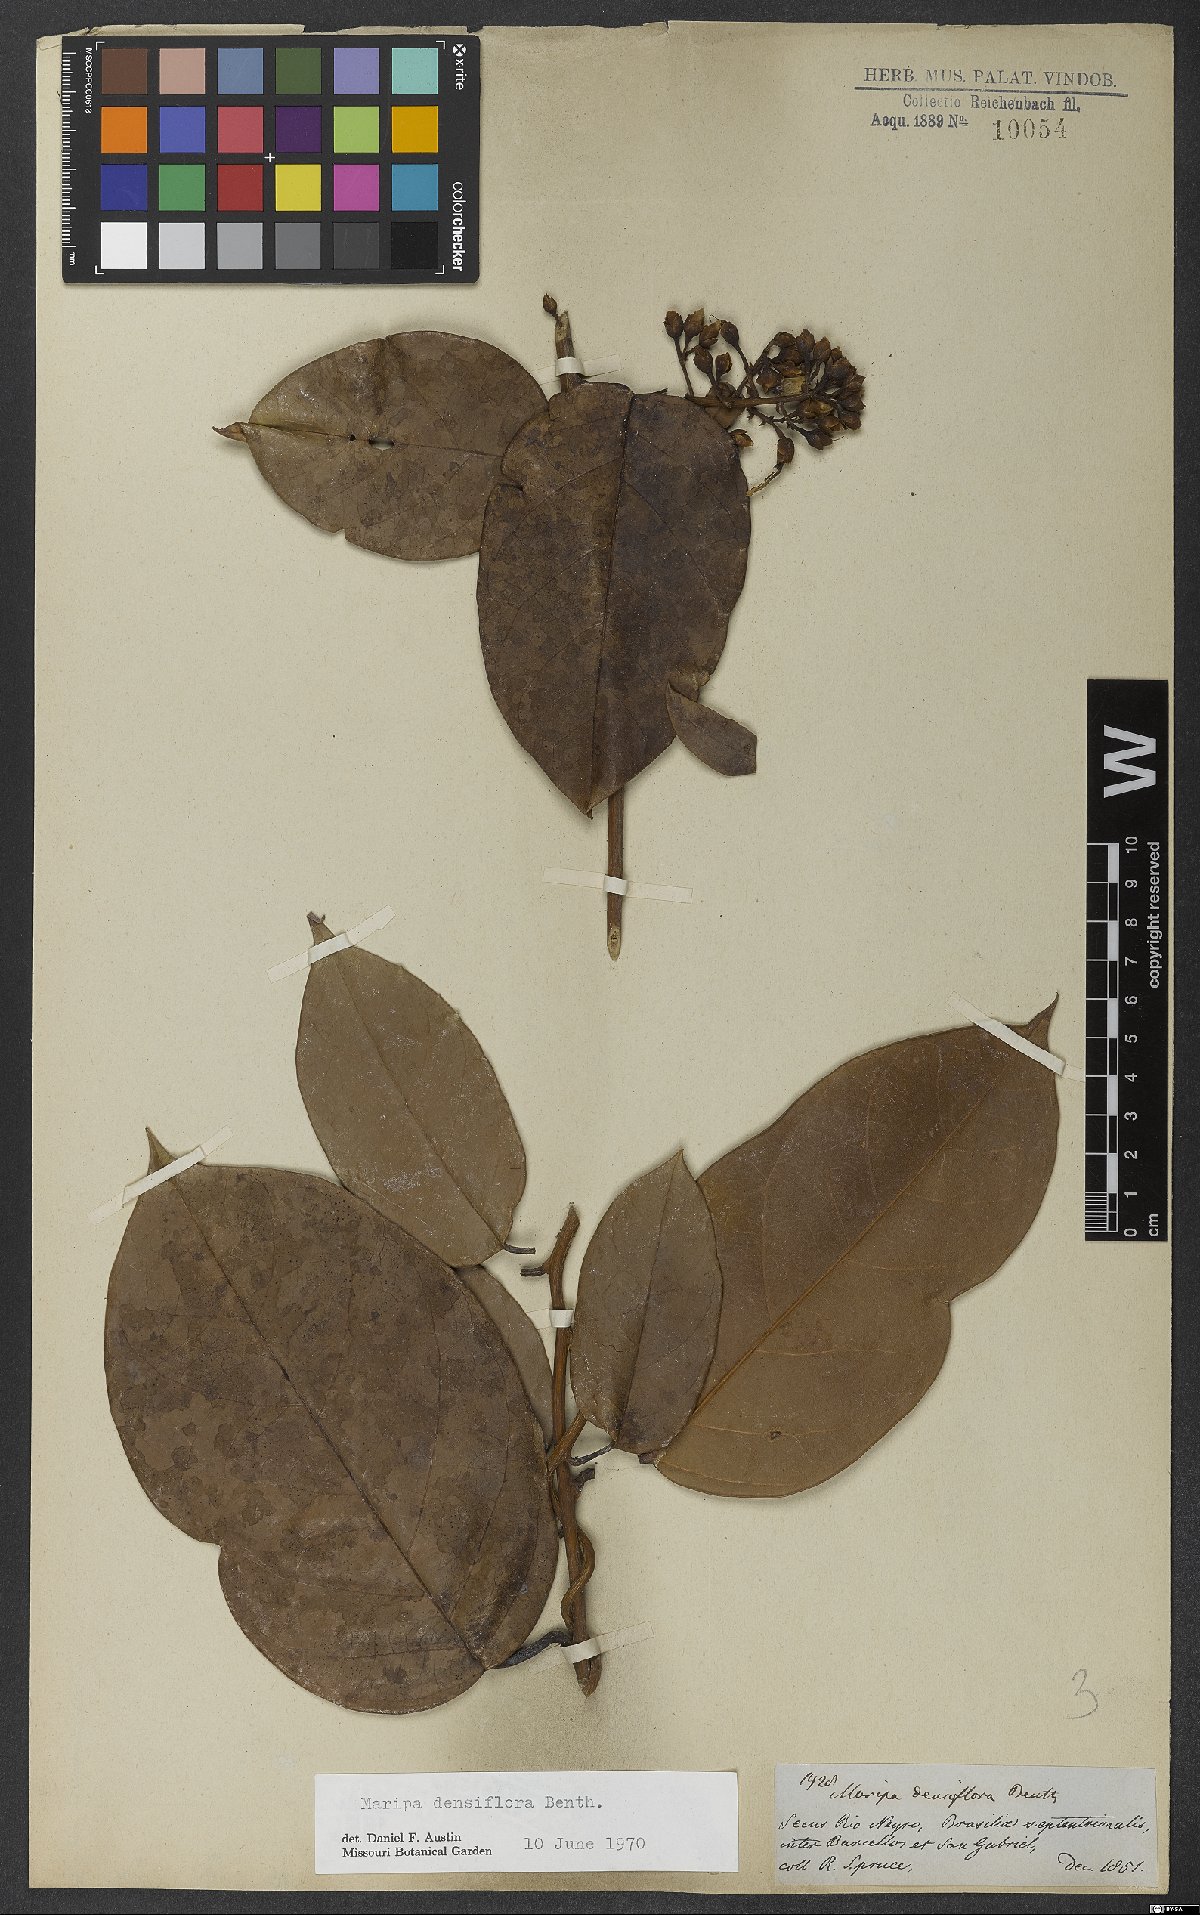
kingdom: Plantae
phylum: Tracheophyta
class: Magnoliopsida
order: Solanales
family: Convolvulaceae
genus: Maripa
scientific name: Maripa densiflora
